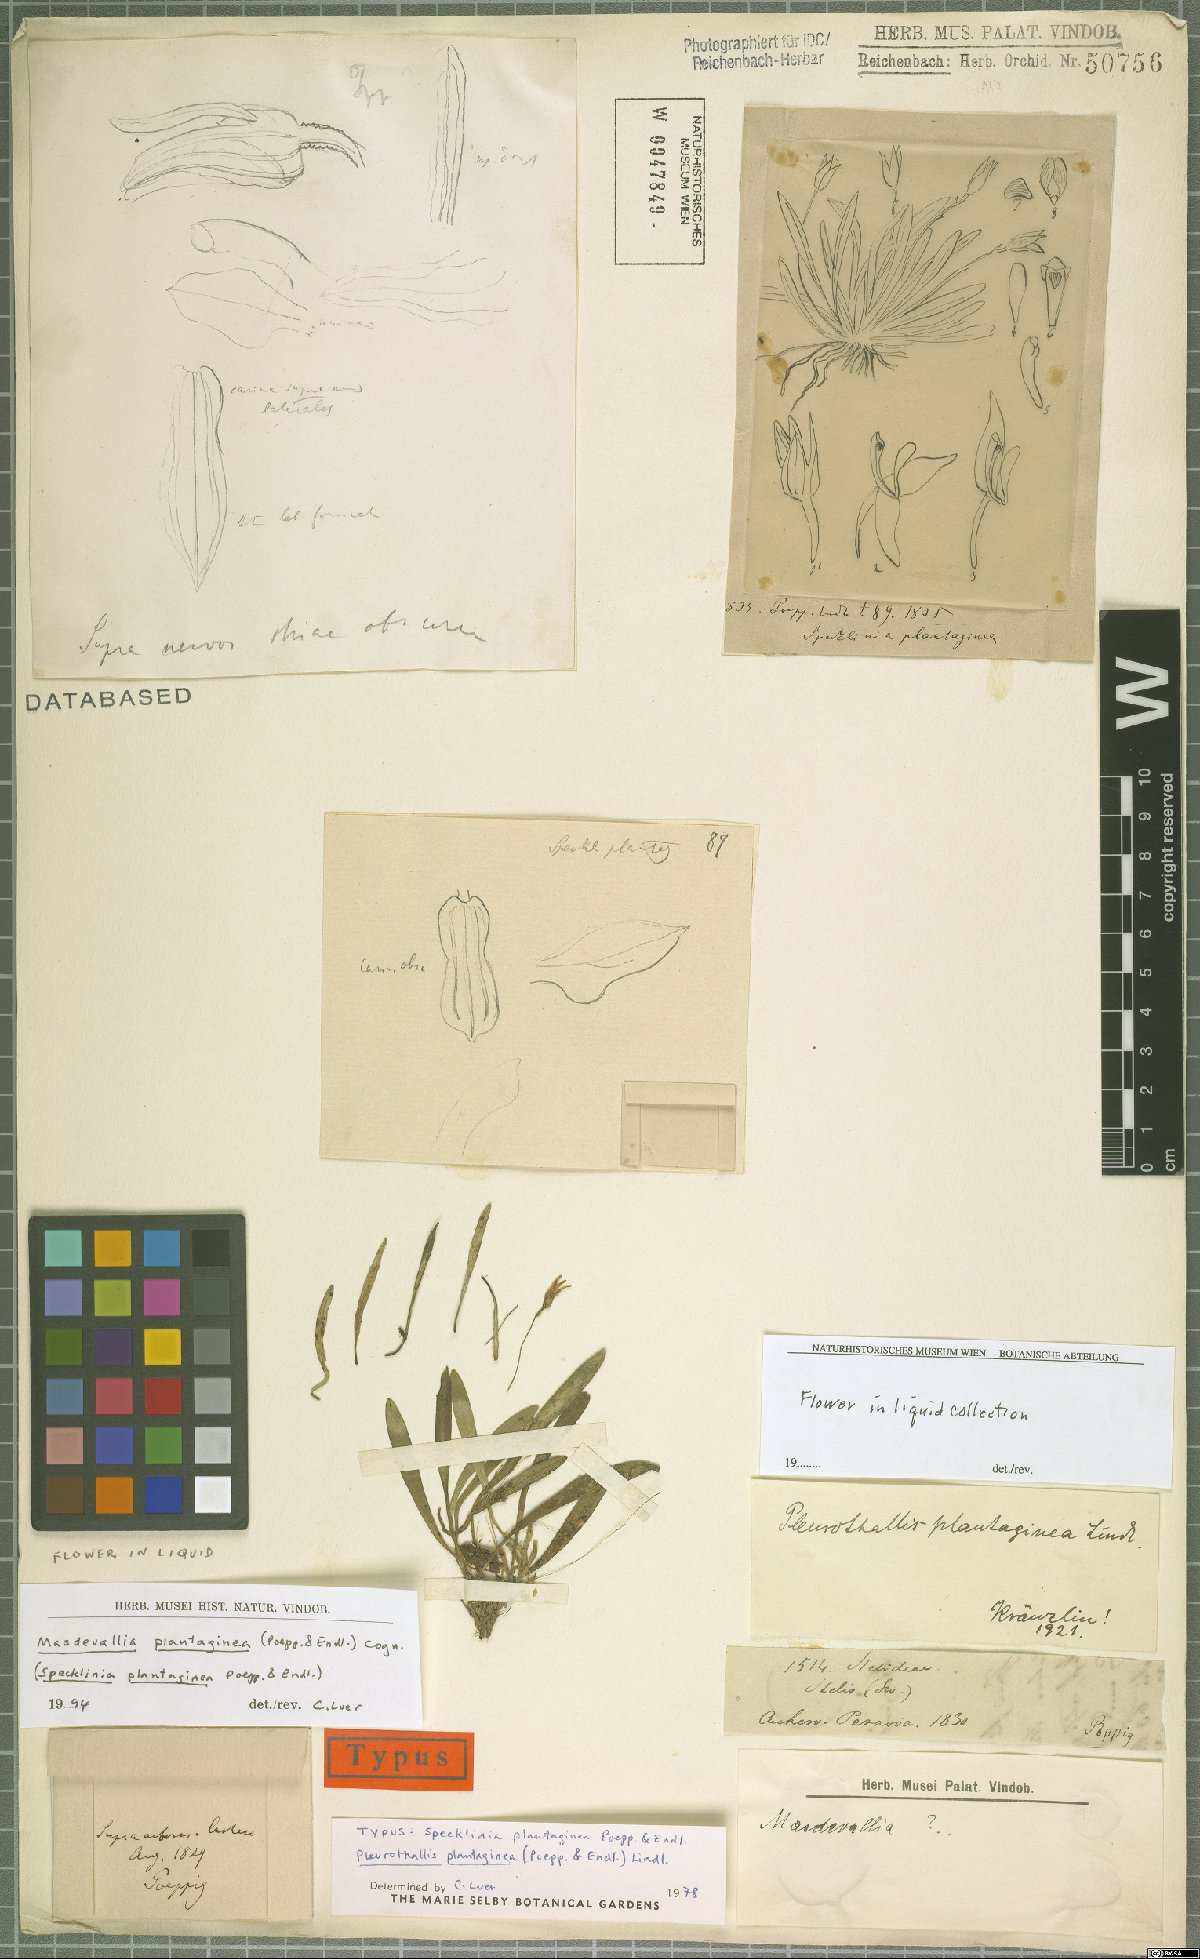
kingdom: Plantae
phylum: Tracheophyta
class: Liliopsida
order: Asparagales
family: Orchidaceae
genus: Masdevallia
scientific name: Masdevallia plantaginea
